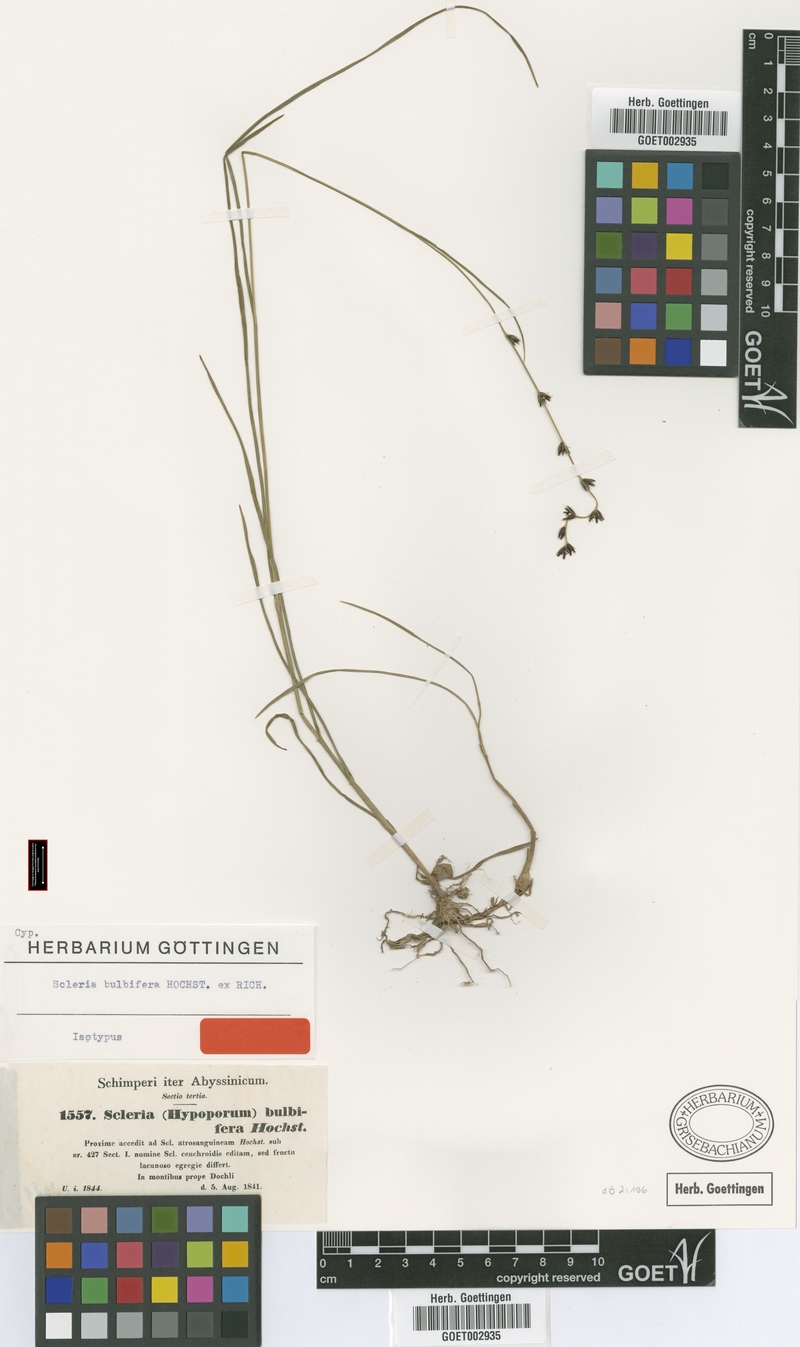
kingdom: Plantae
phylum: Tracheophyta
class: Liliopsida
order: Poales
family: Cyperaceae
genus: Scleria
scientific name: Scleria bulbifera
